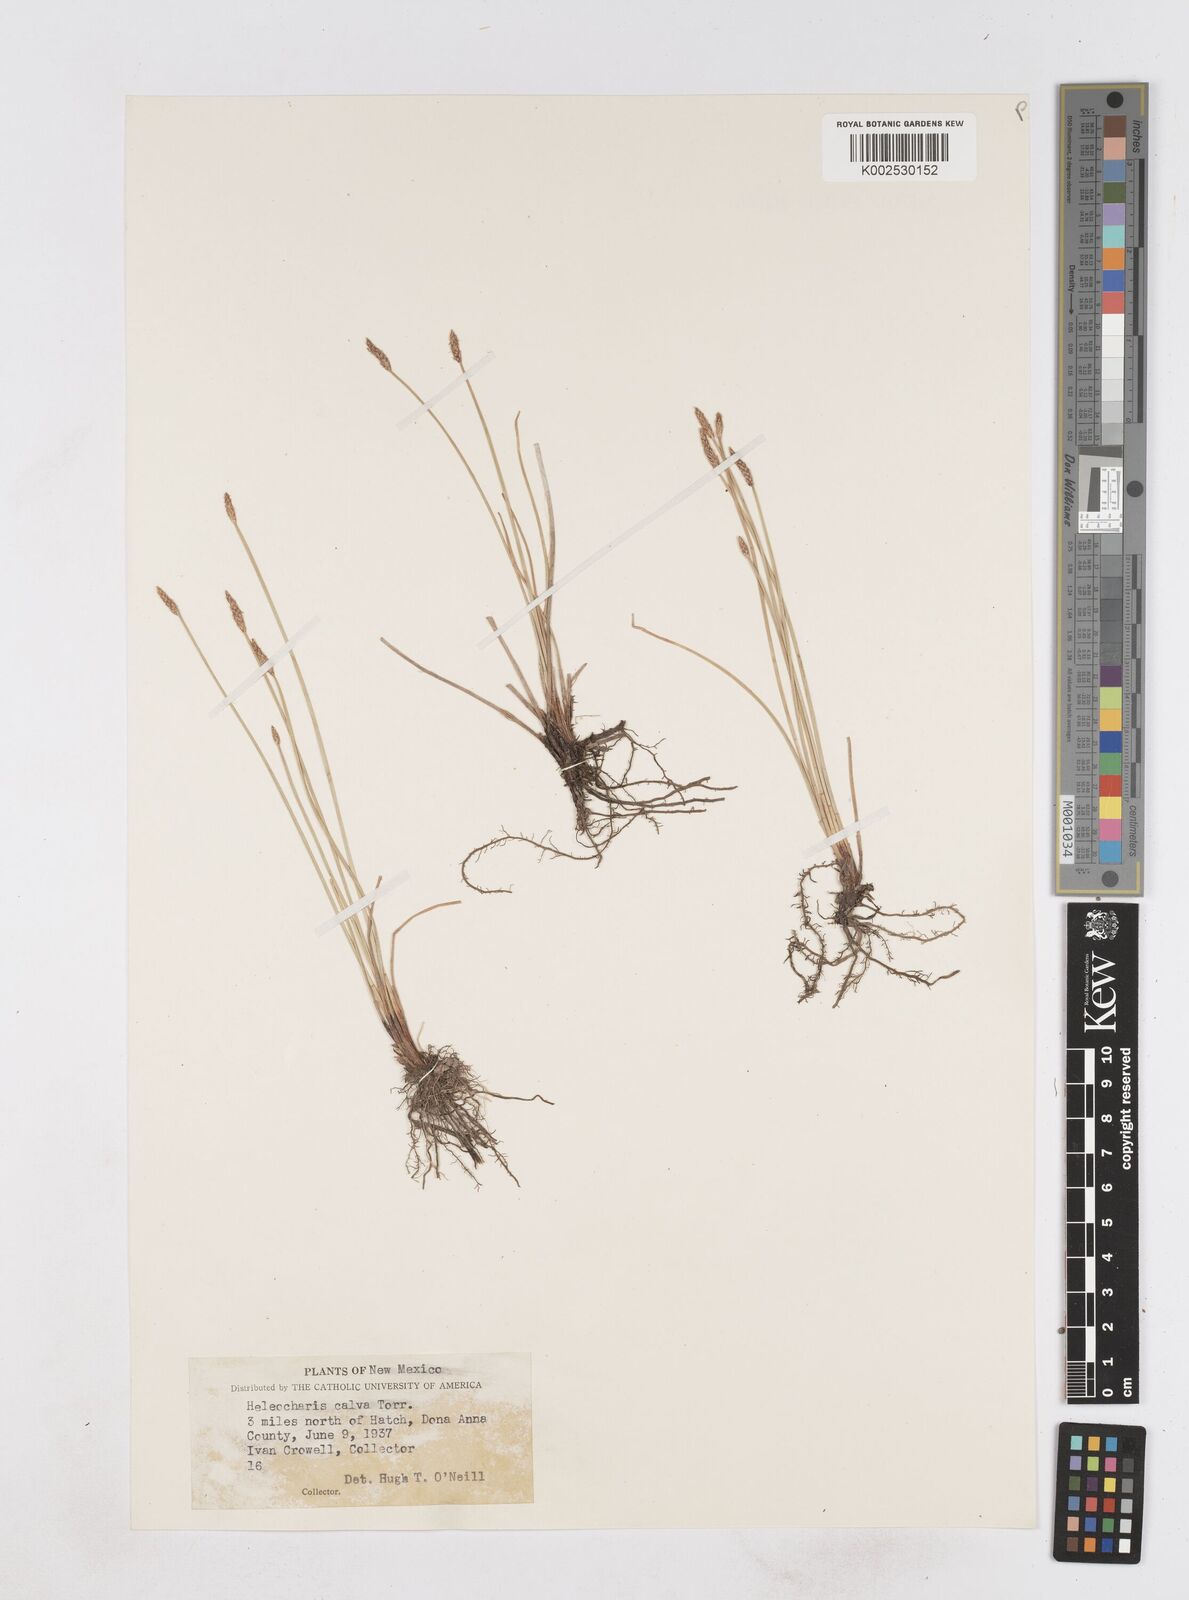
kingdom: Plantae
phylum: Tracheophyta
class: Liliopsida
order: Poales
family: Cyperaceae
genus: Eleocharis
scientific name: Eleocharis erythropoda
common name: Bald spikerush
